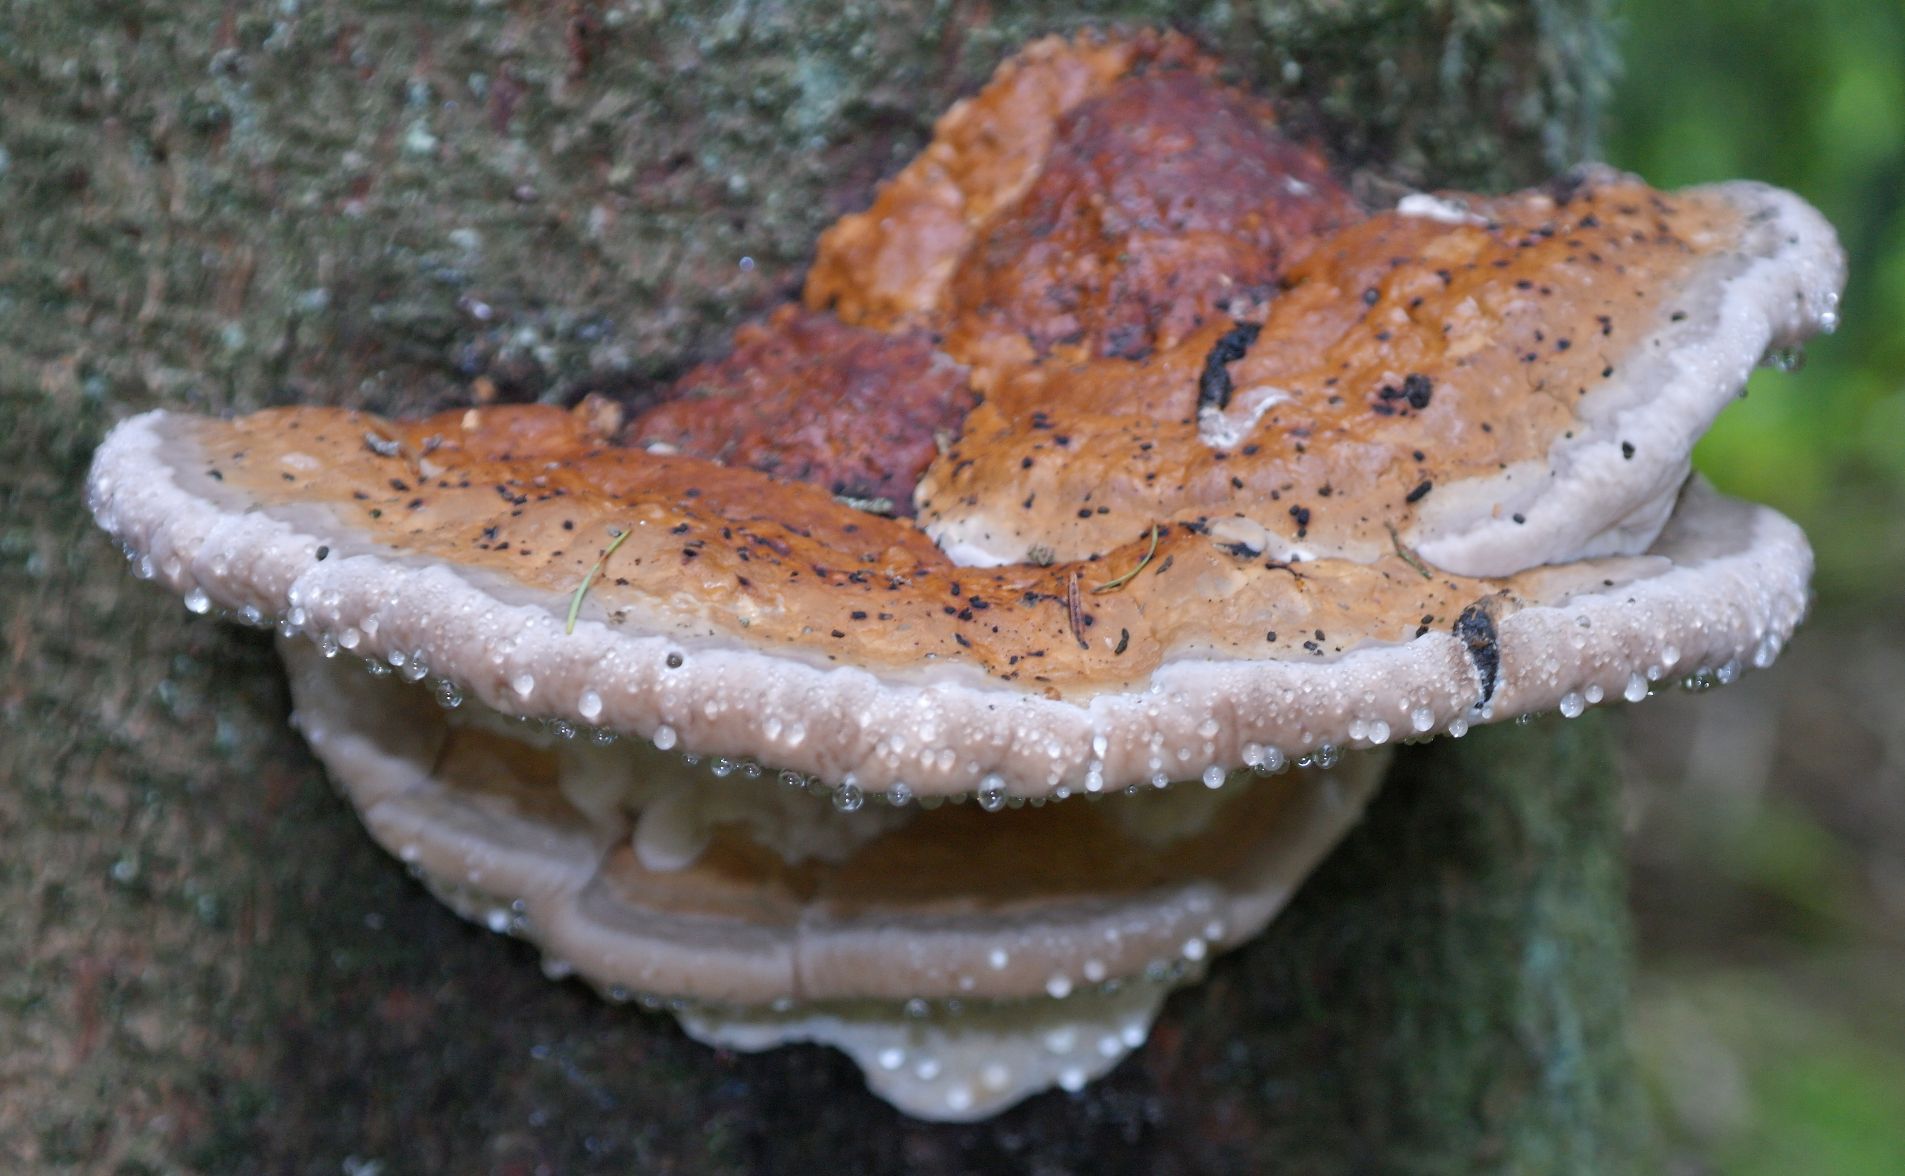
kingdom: Fungi
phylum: Basidiomycota
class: Agaricomycetes
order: Polyporales
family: Fomitopsidaceae
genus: Fomitopsis
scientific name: Fomitopsis pinicola
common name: randbæltet hovporesvamp
